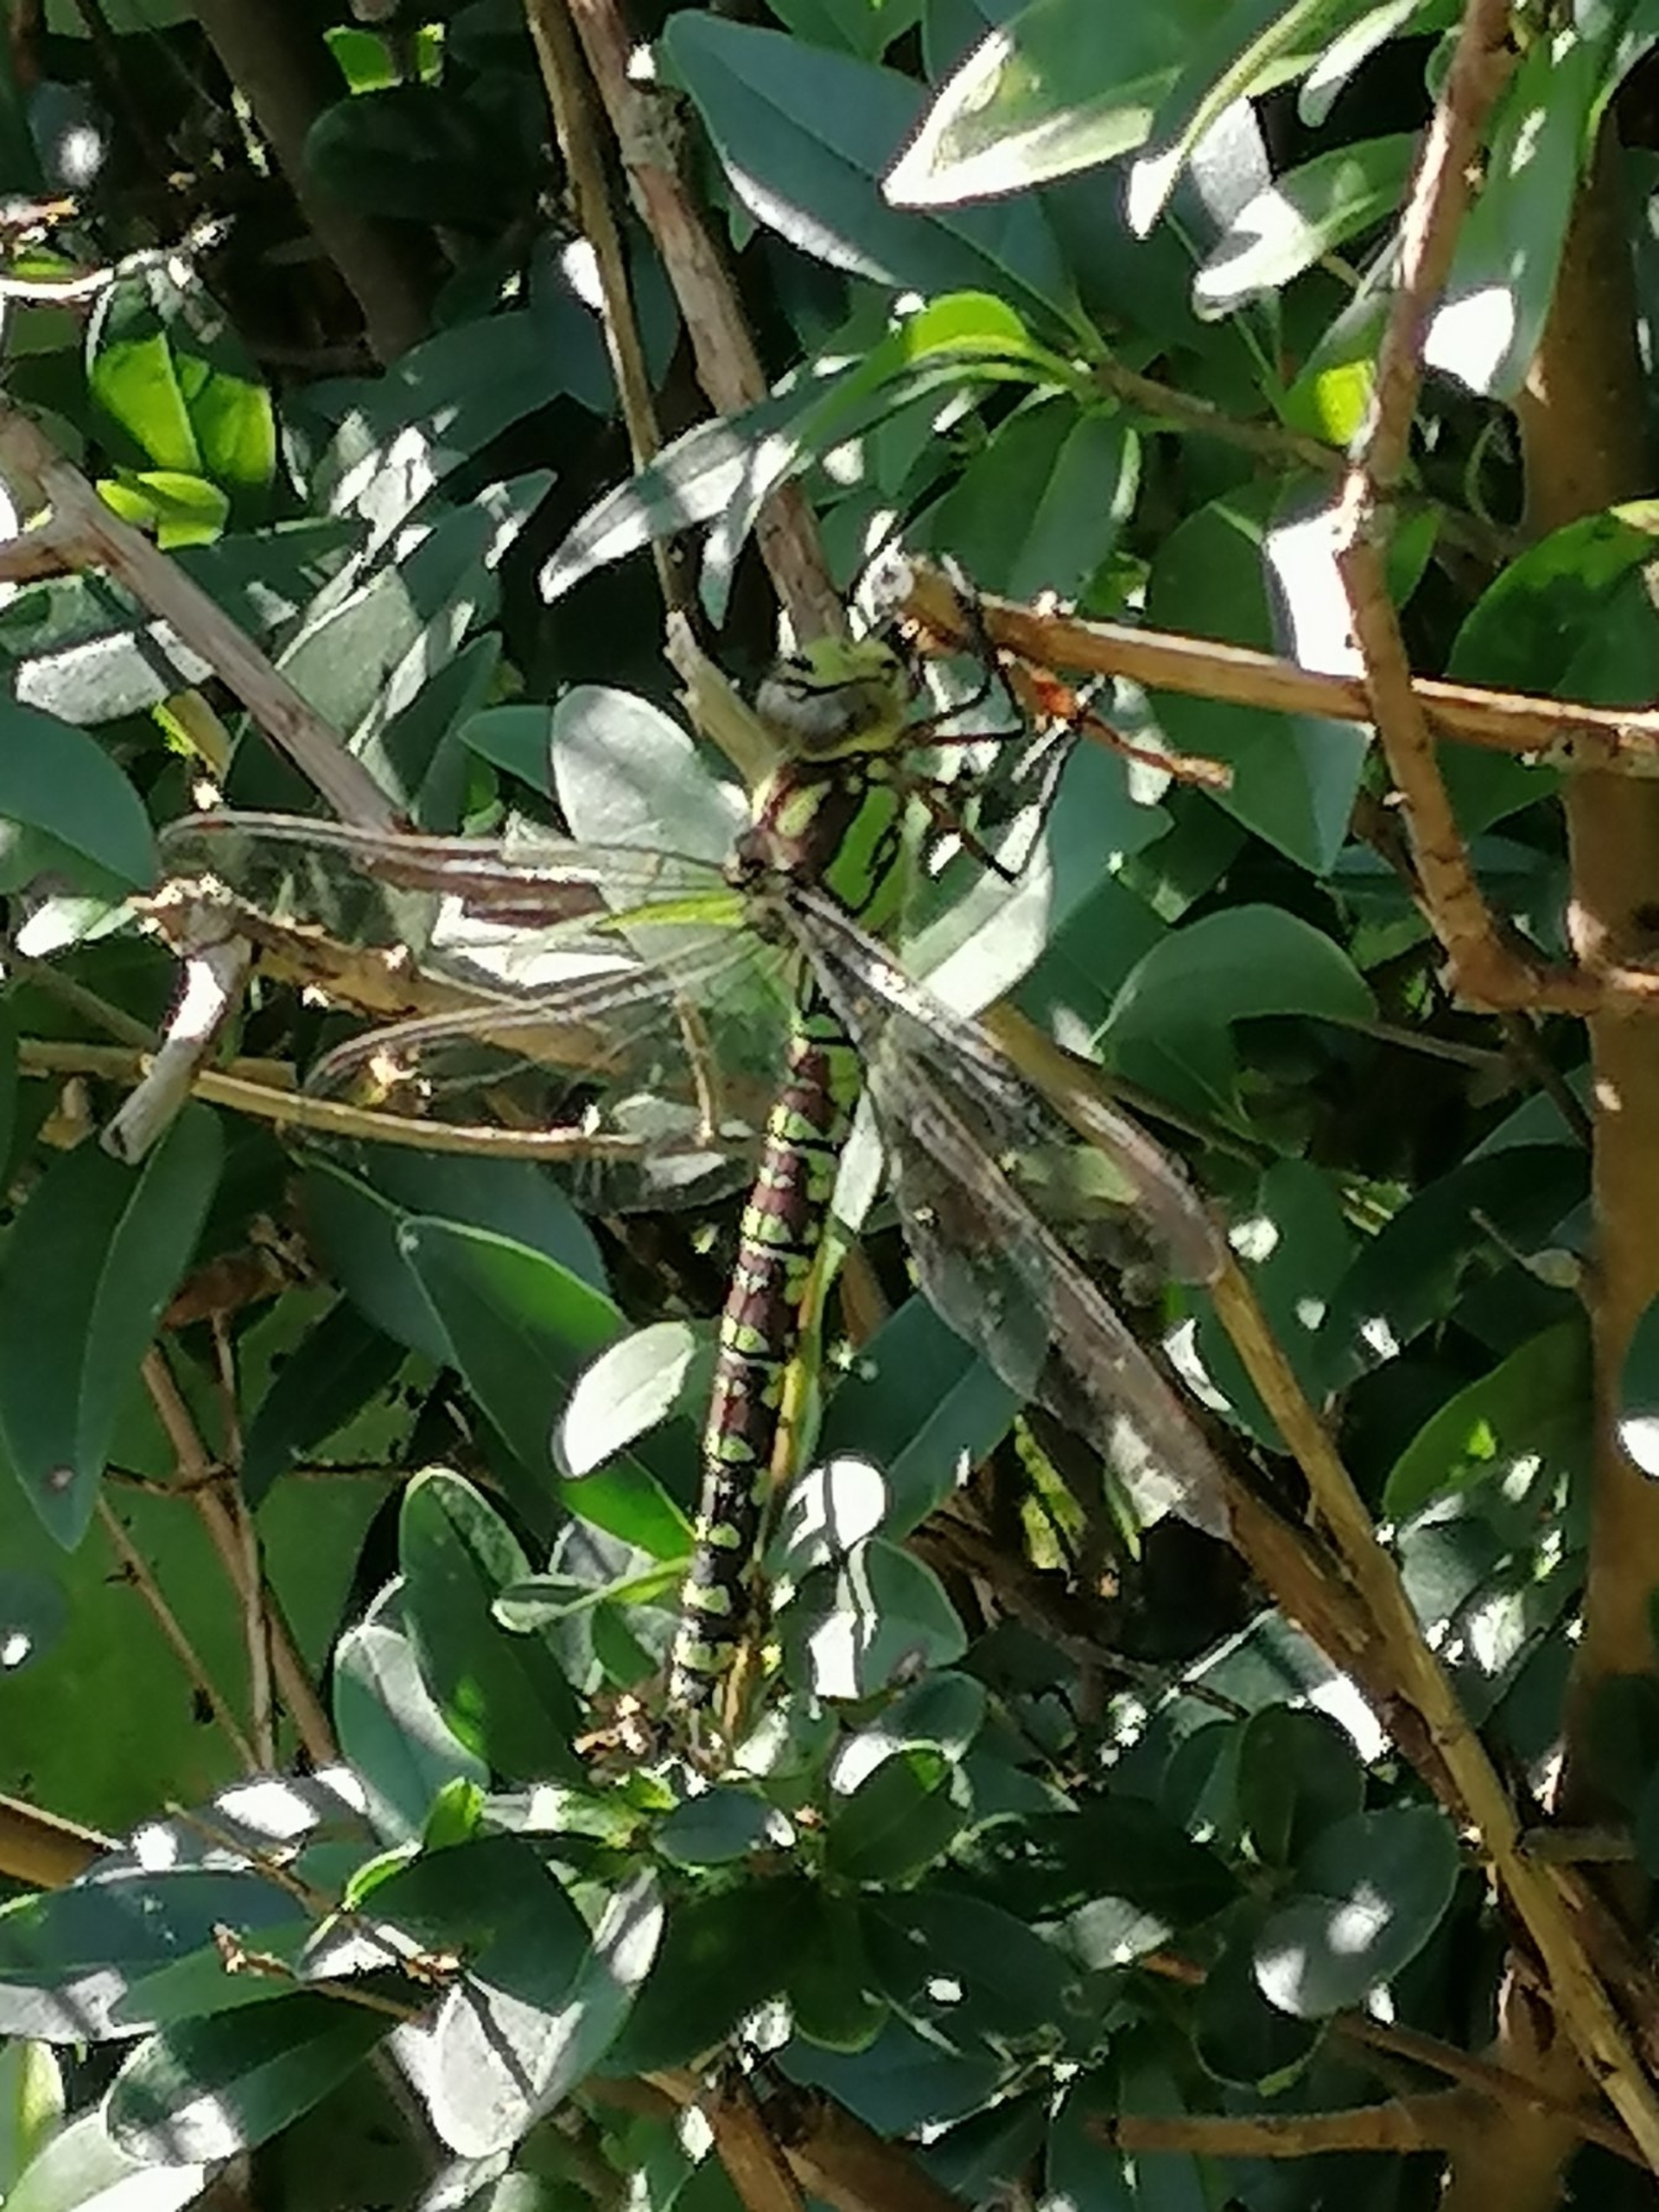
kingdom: Animalia
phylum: Arthropoda
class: Insecta
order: Odonata
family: Aeshnidae
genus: Aeshna
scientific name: Aeshna cyanea
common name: Blå mosaikguldsmed
